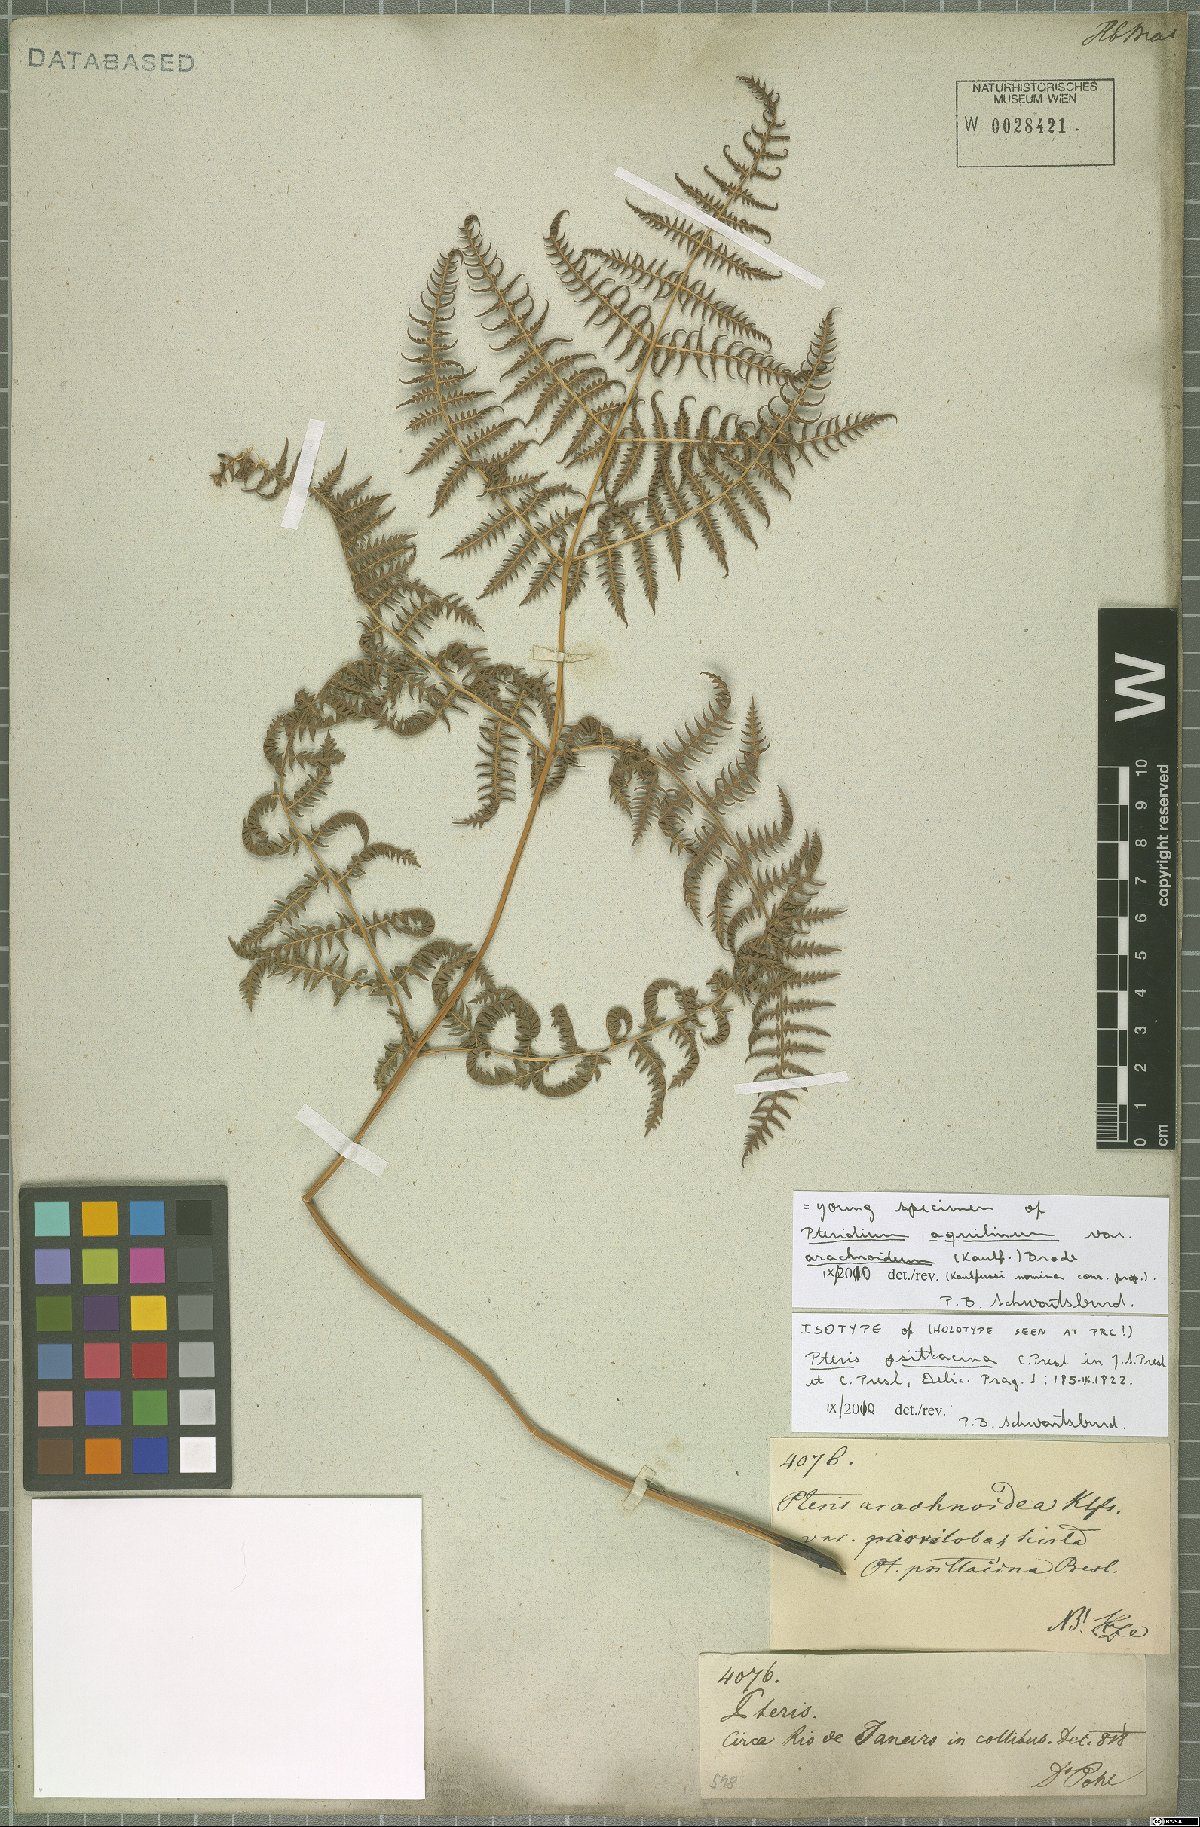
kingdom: Plantae
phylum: Tracheophyta
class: Polypodiopsida
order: Polypodiales
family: Dennstaedtiaceae
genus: Pteridium
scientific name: Pteridium esculentum
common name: Bracken fern
